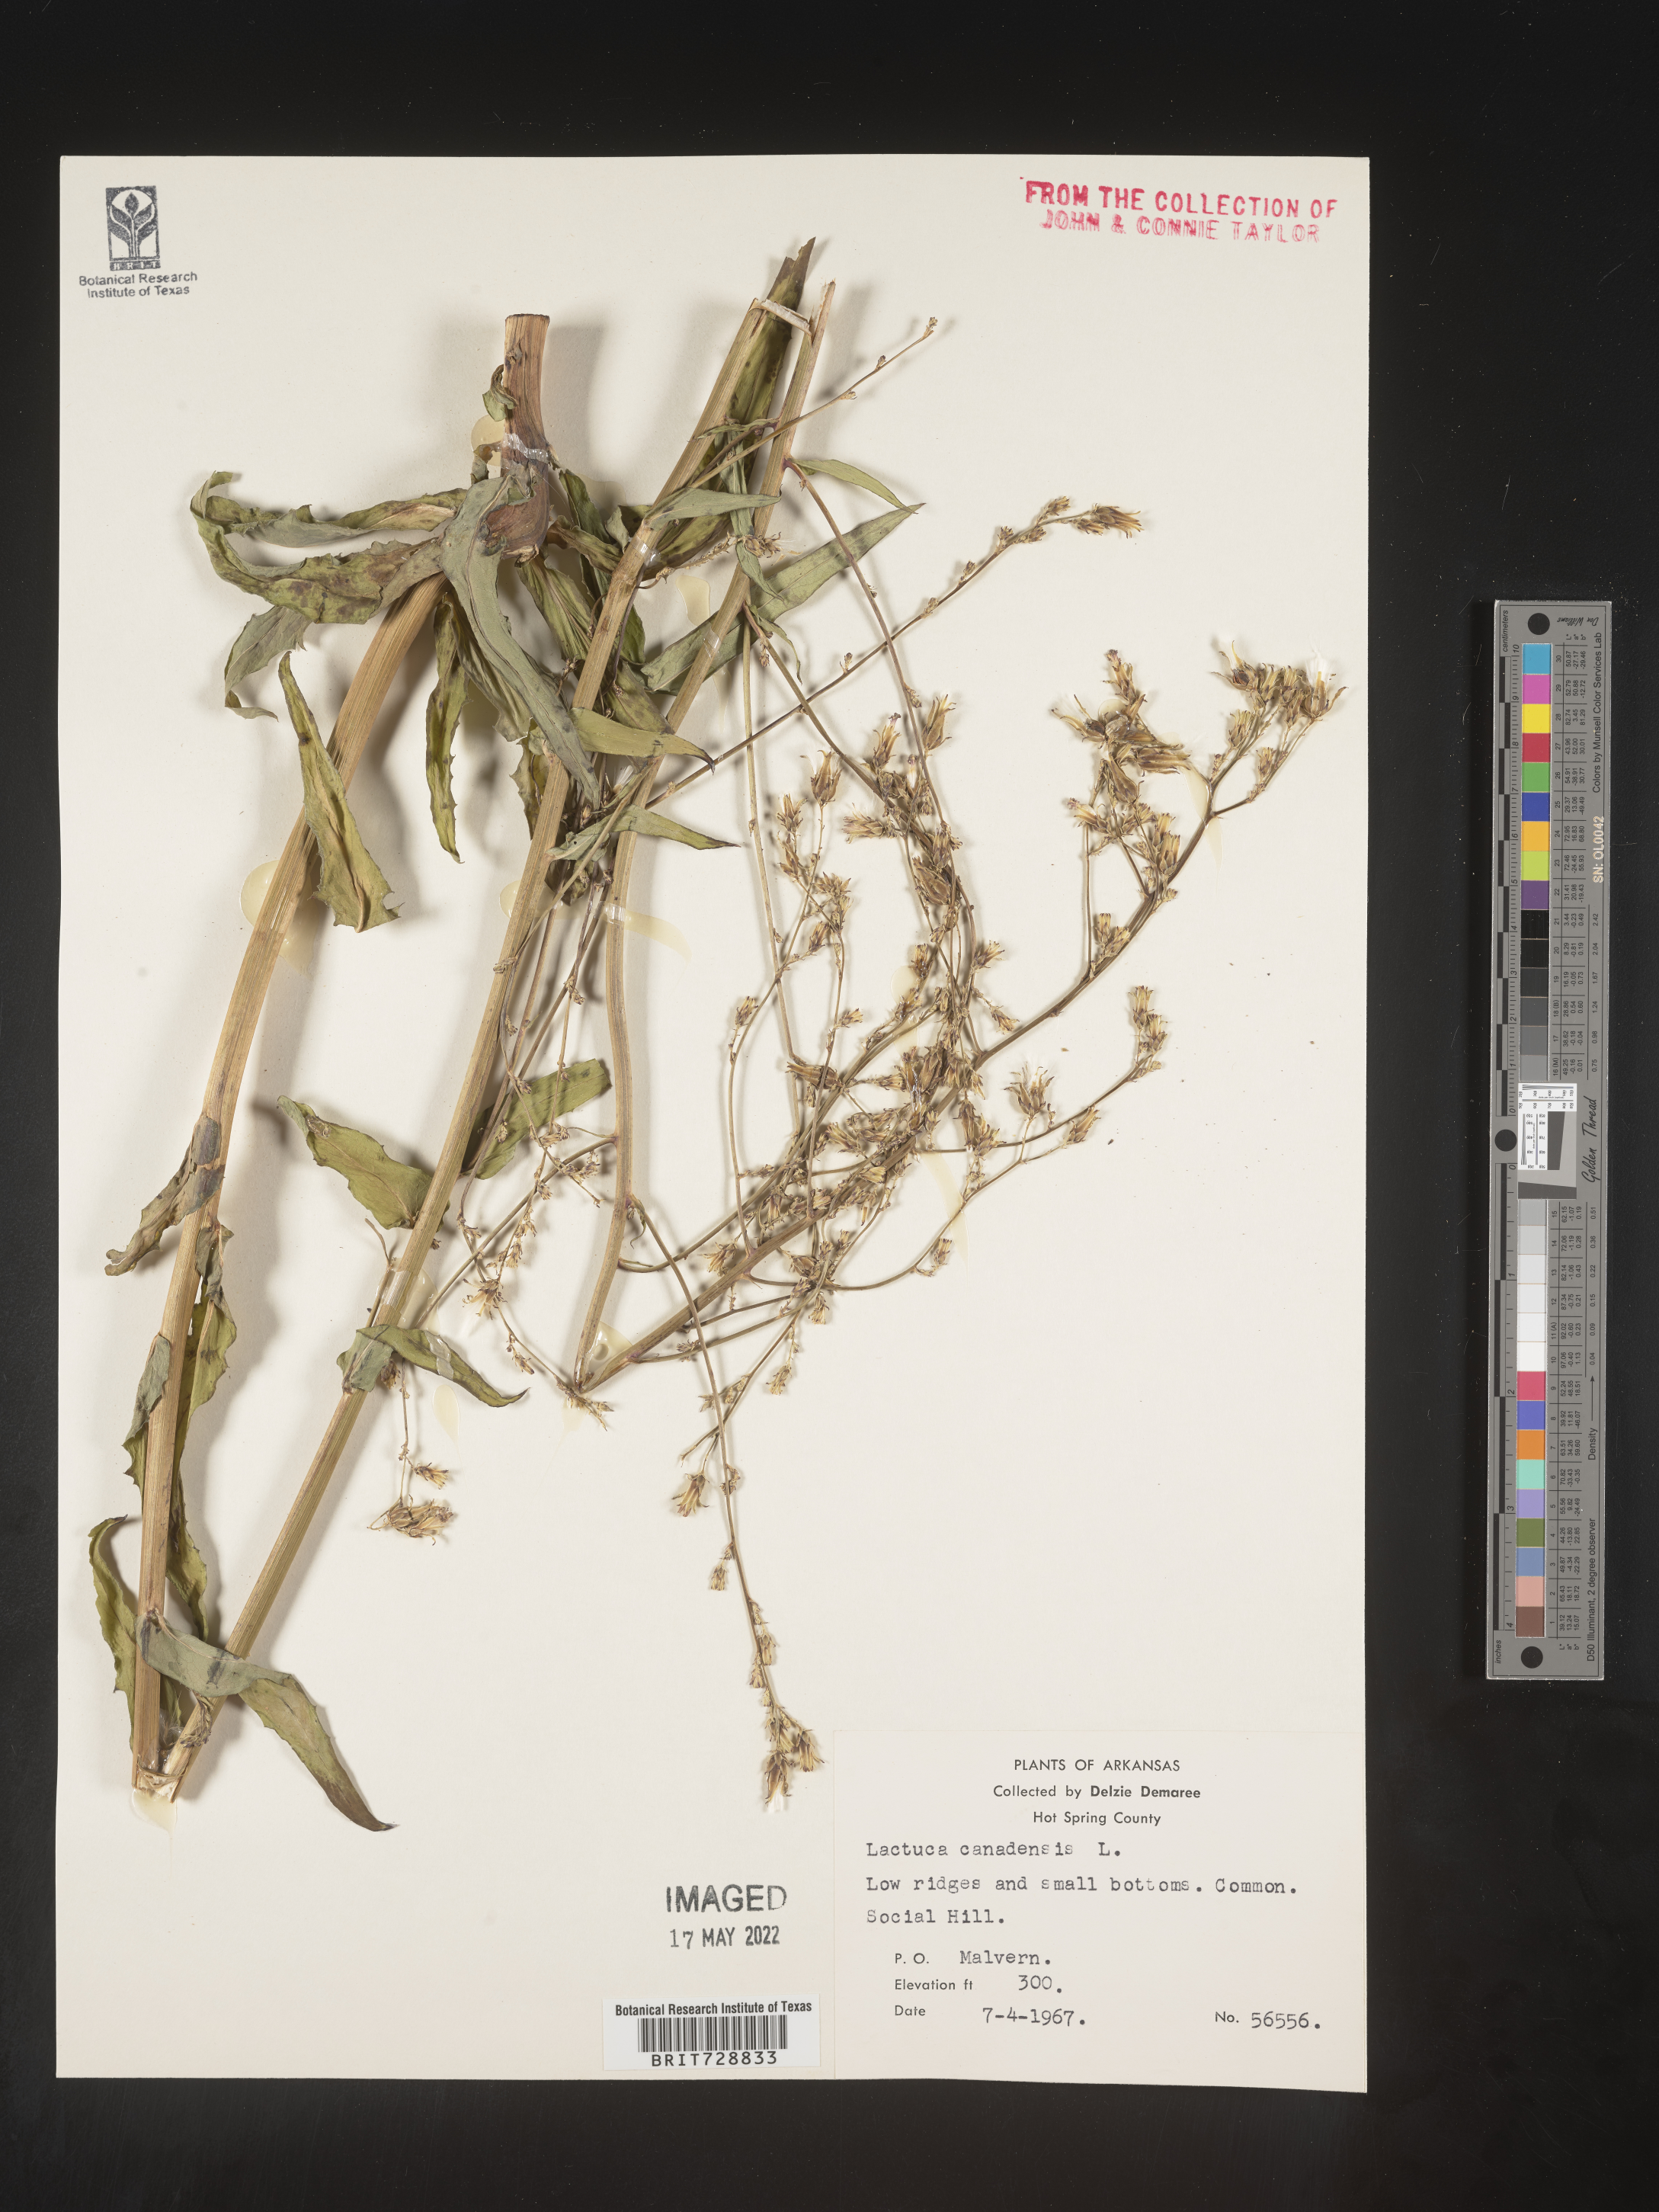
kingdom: Plantae
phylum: Tracheophyta
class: Magnoliopsida
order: Asterales
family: Asteraceae
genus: Lactuca
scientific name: Lactuca canadensis
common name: Canada lettuce
